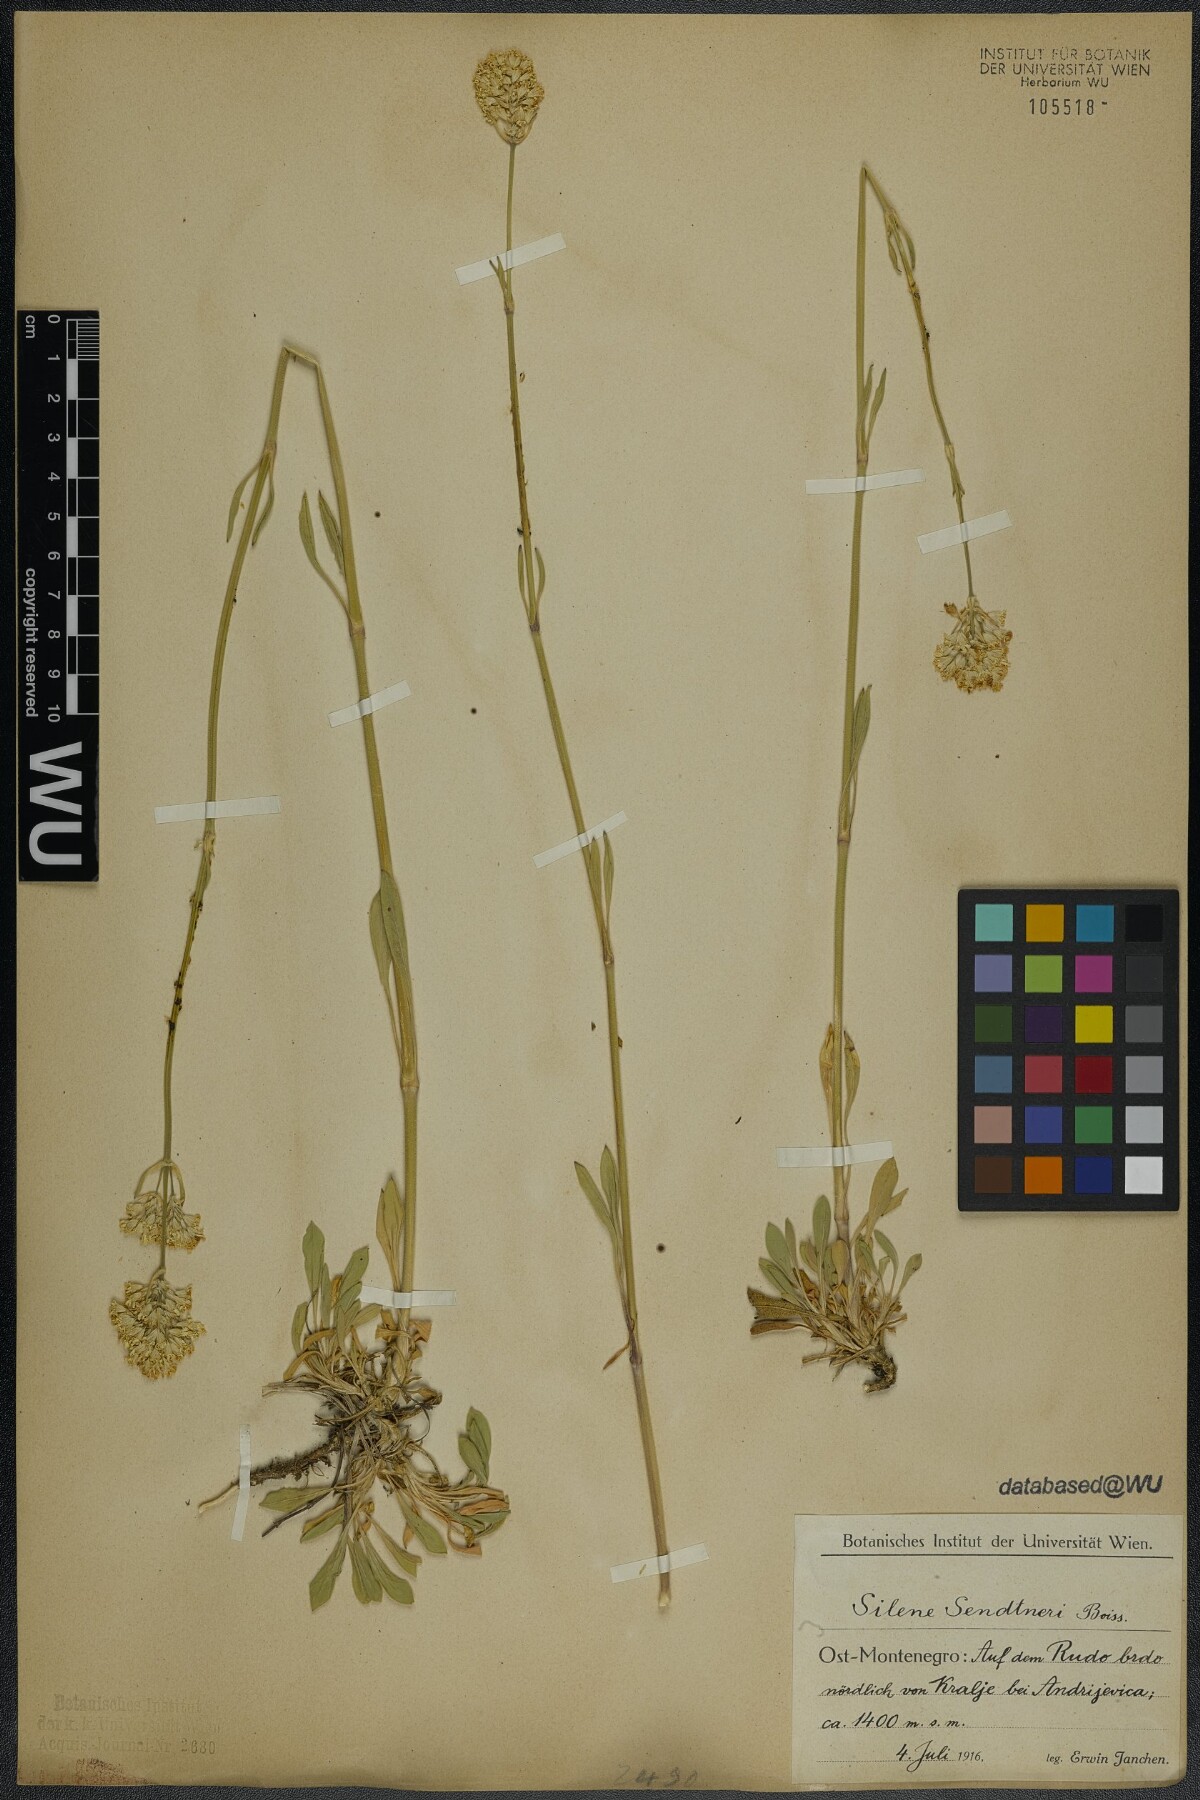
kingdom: Plantae
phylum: Tracheophyta
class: Magnoliopsida
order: Caryophyllales
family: Caryophyllaceae
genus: Silene
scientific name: Silene sendtneri
